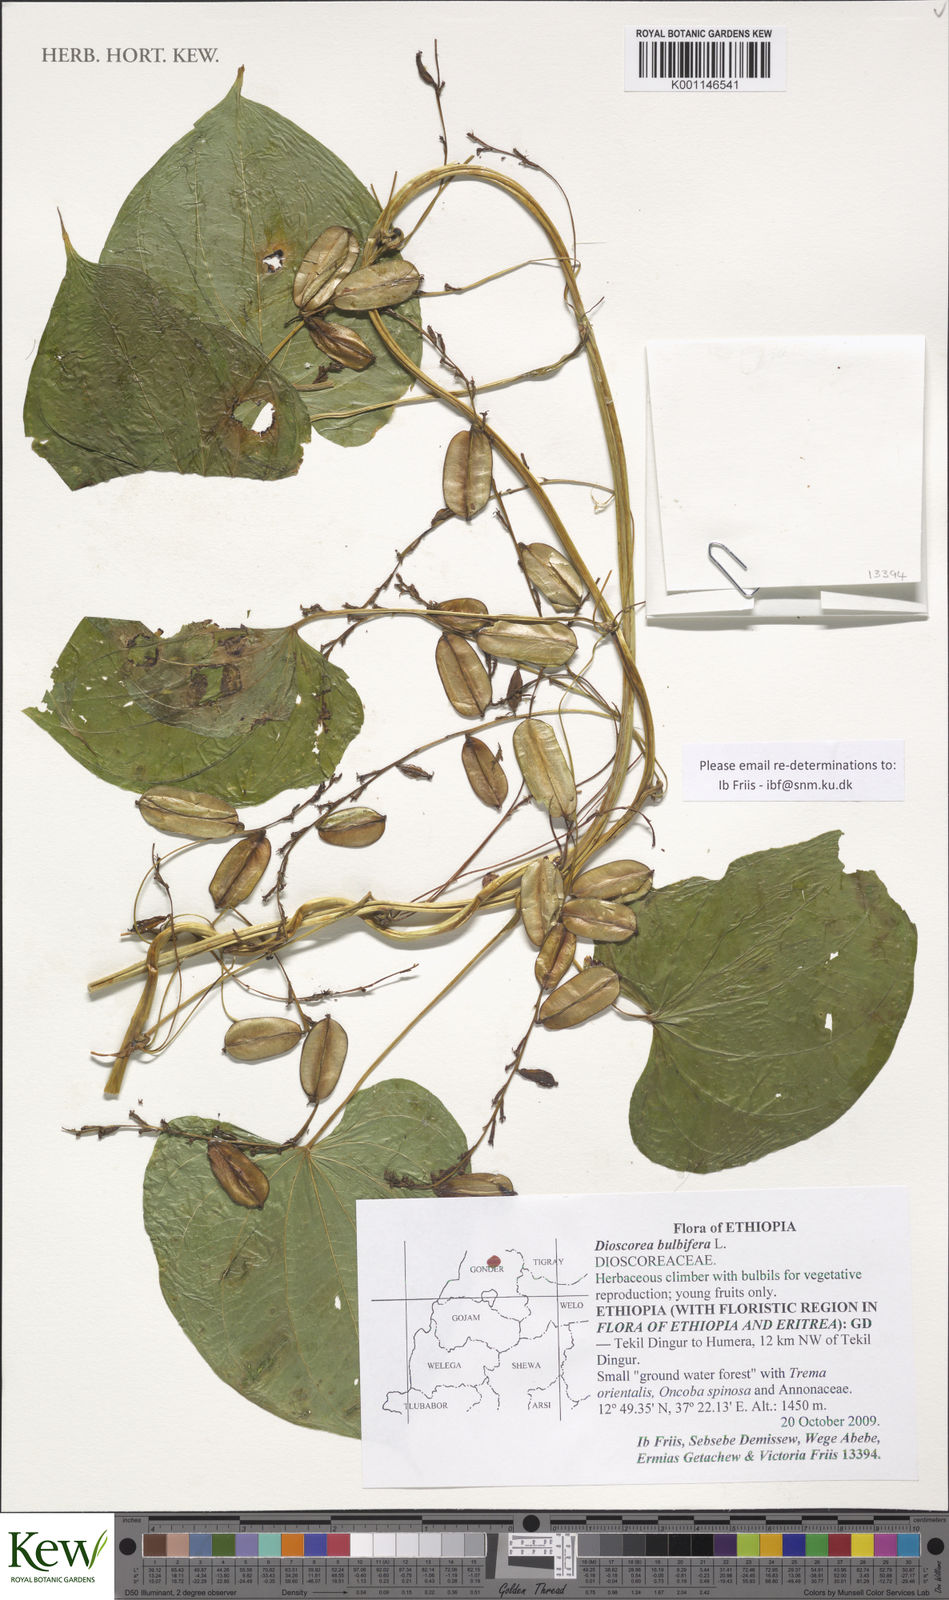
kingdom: Plantae
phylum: Tracheophyta
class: Liliopsida
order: Dioscoreales
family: Dioscoreaceae
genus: Dioscorea
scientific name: Dioscorea bulbifera
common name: Air yam
